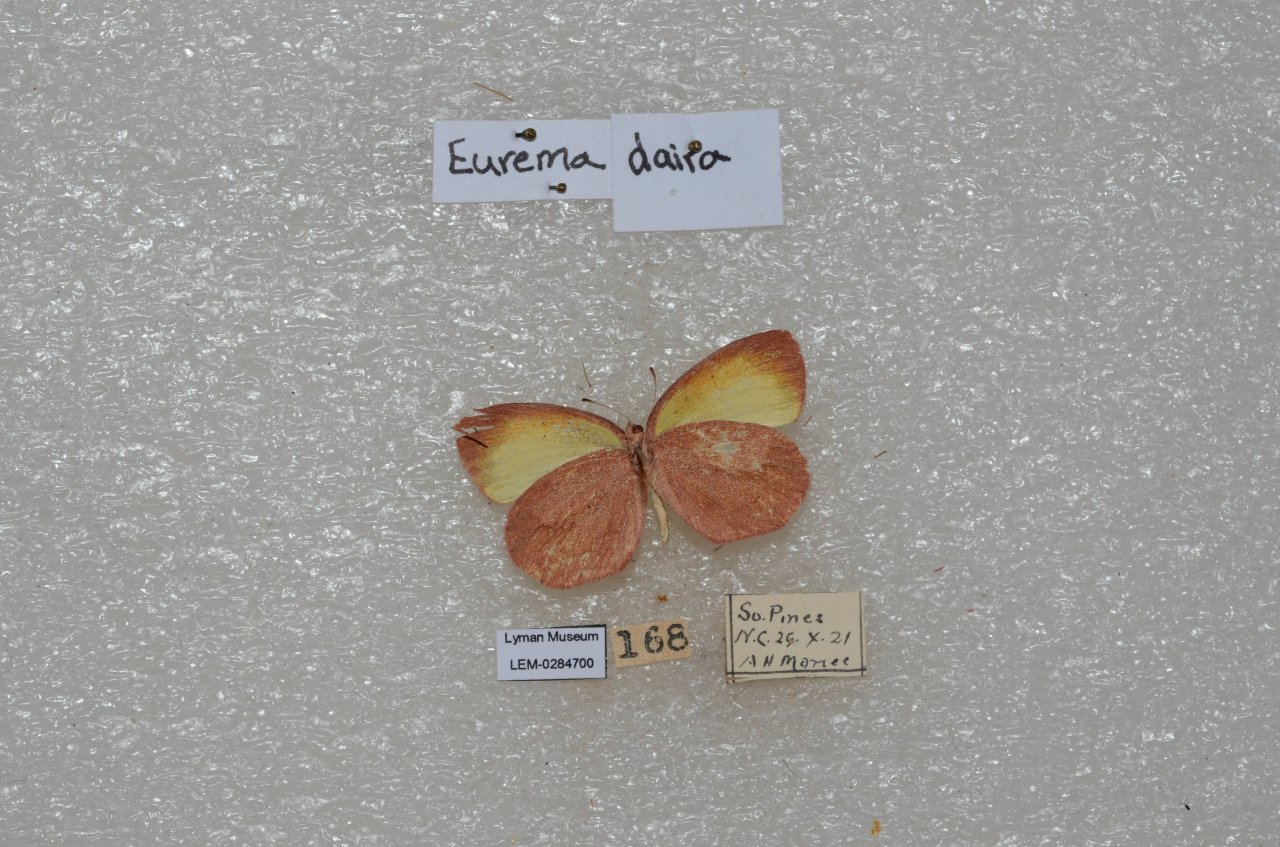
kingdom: Animalia
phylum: Arthropoda
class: Insecta
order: Lepidoptera
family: Pieridae
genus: Eurema
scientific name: Eurema daira
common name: Barred Yellow
